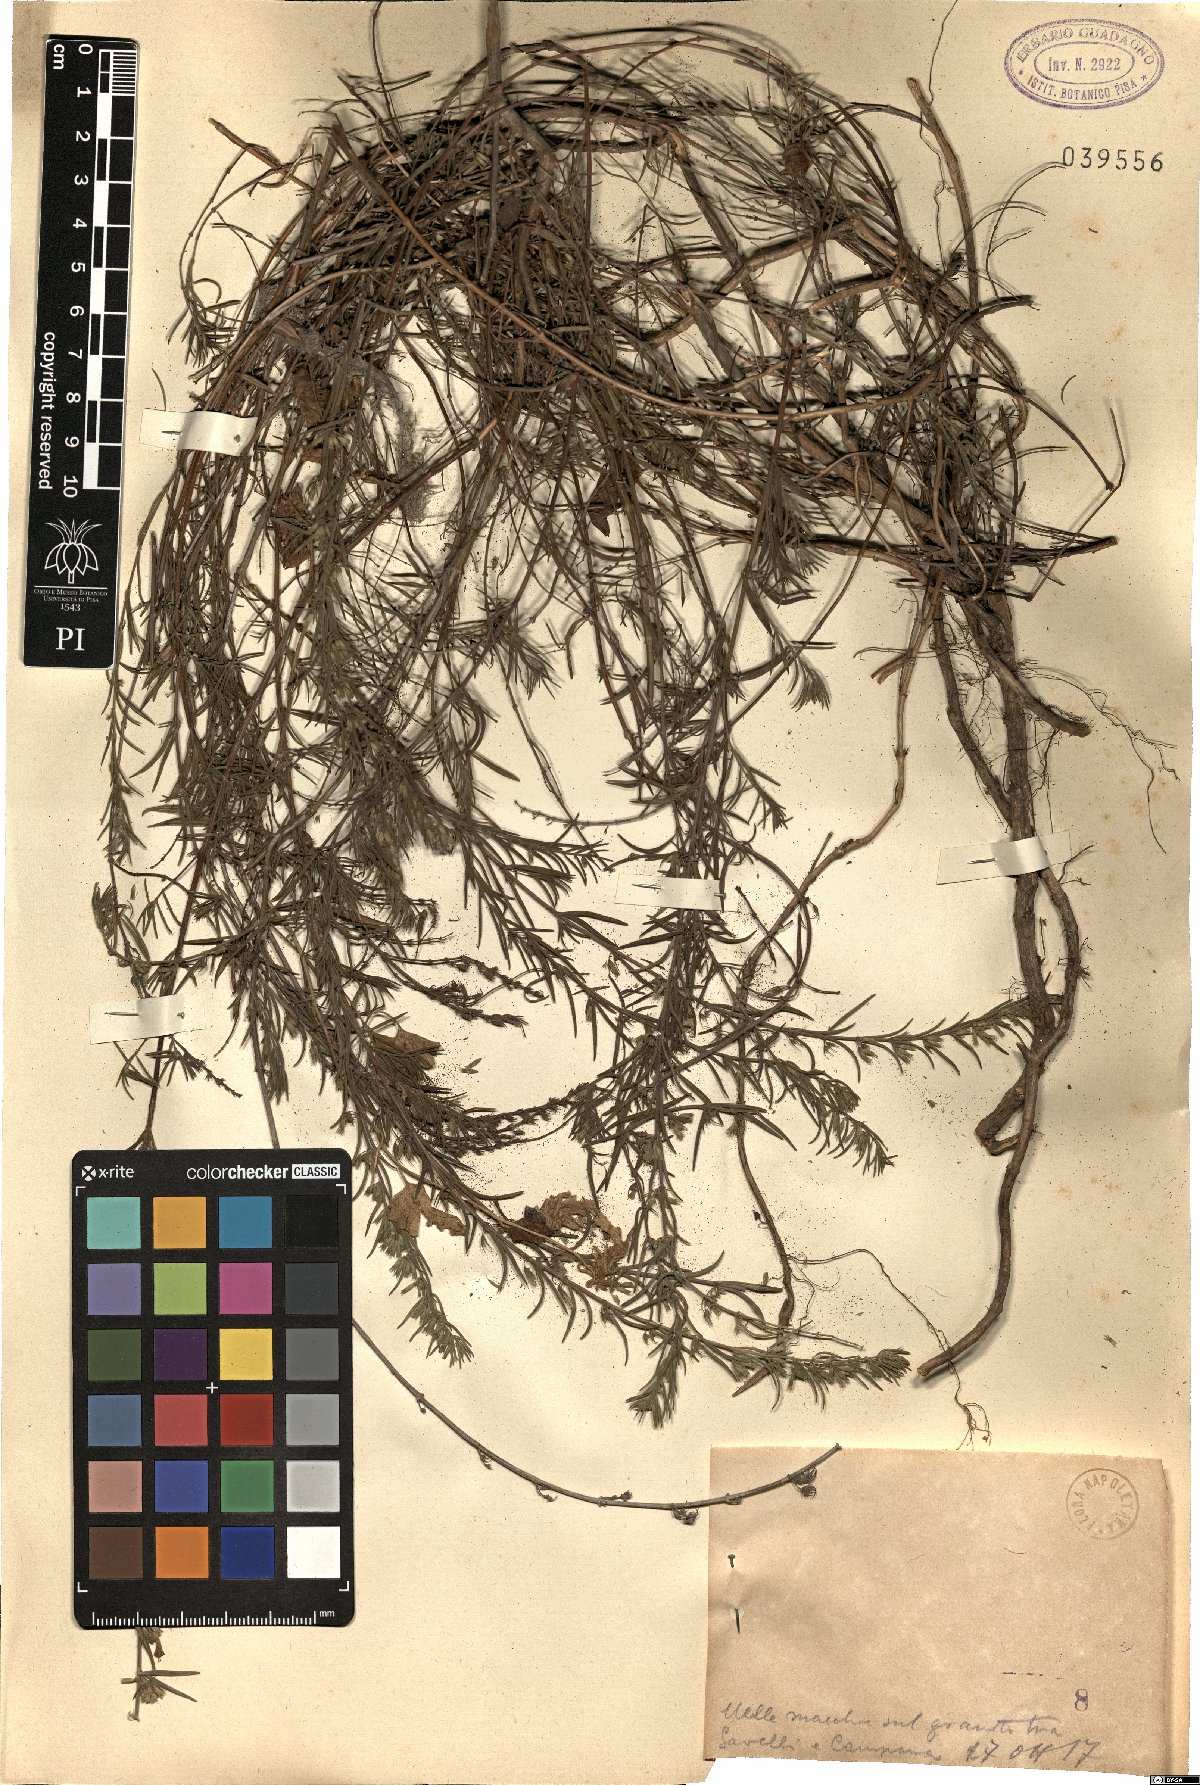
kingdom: Plantae
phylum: Tracheophyta
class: Magnoliopsida
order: Lamiales
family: Lamiaceae
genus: Micromeria
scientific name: Micromeria
